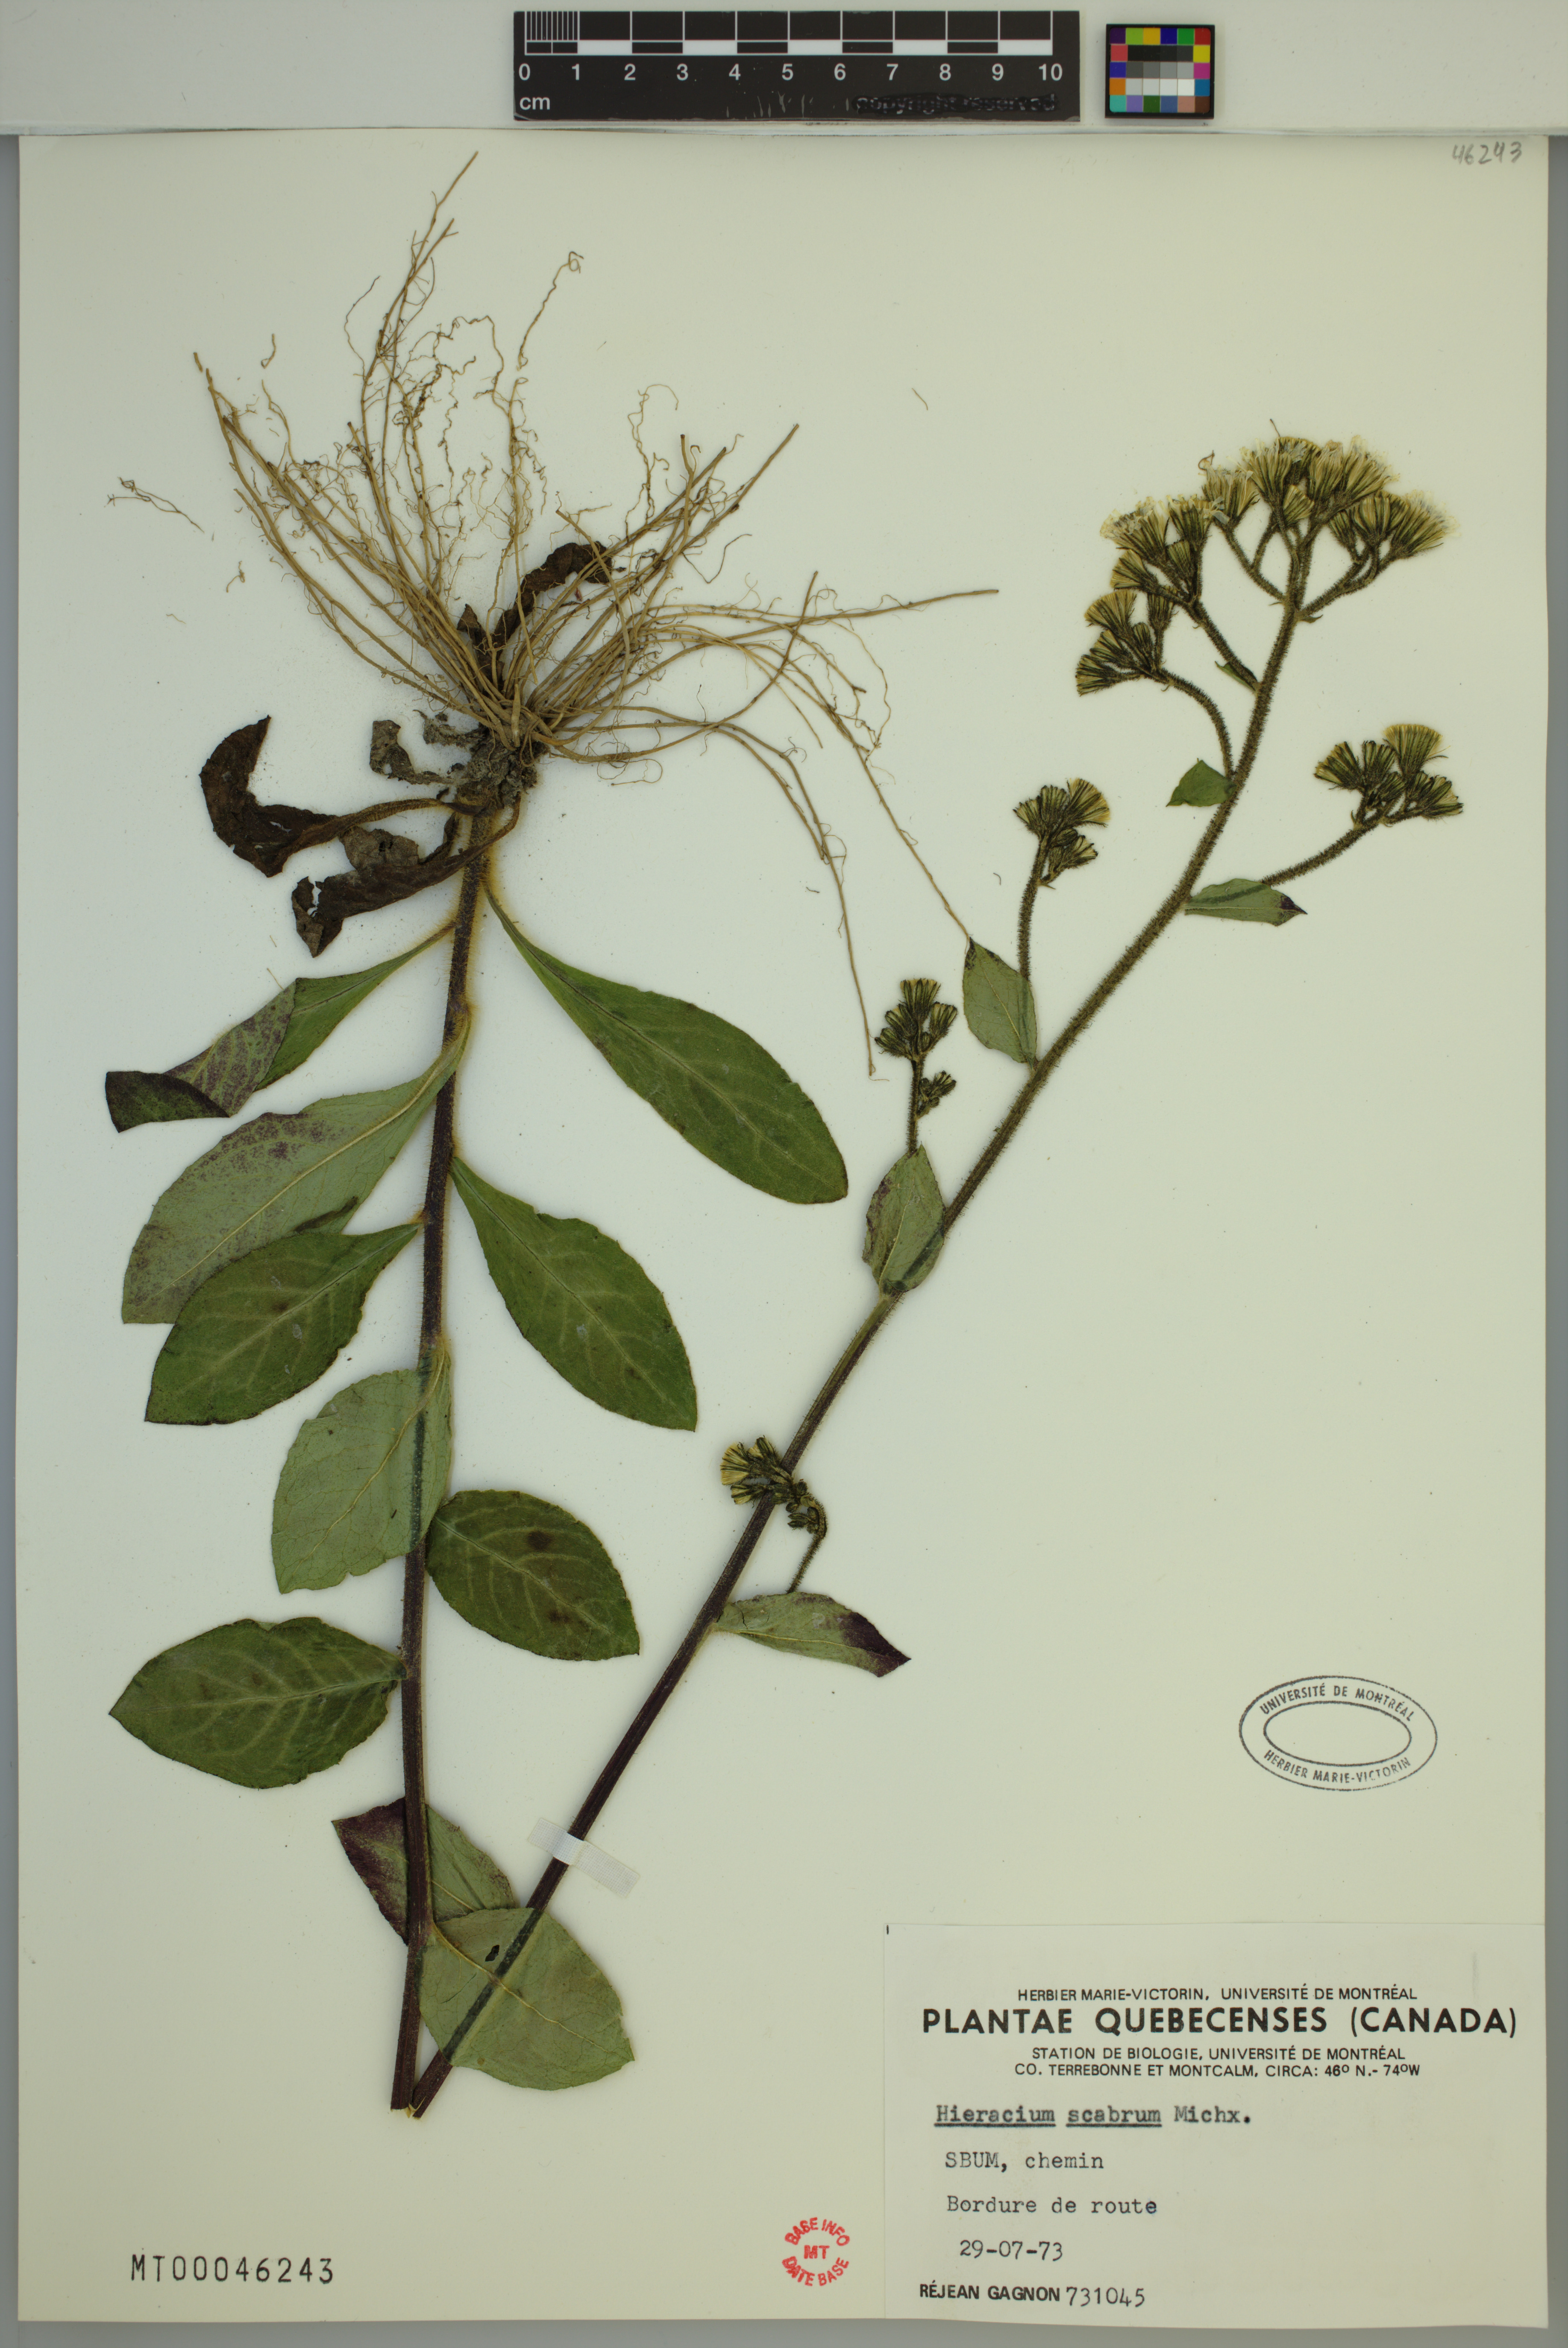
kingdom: Plantae
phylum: Tracheophyta
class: Magnoliopsida
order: Asterales
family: Asteraceae
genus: Hieracium
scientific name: Hieracium scabrum
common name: Rough hawkweed
